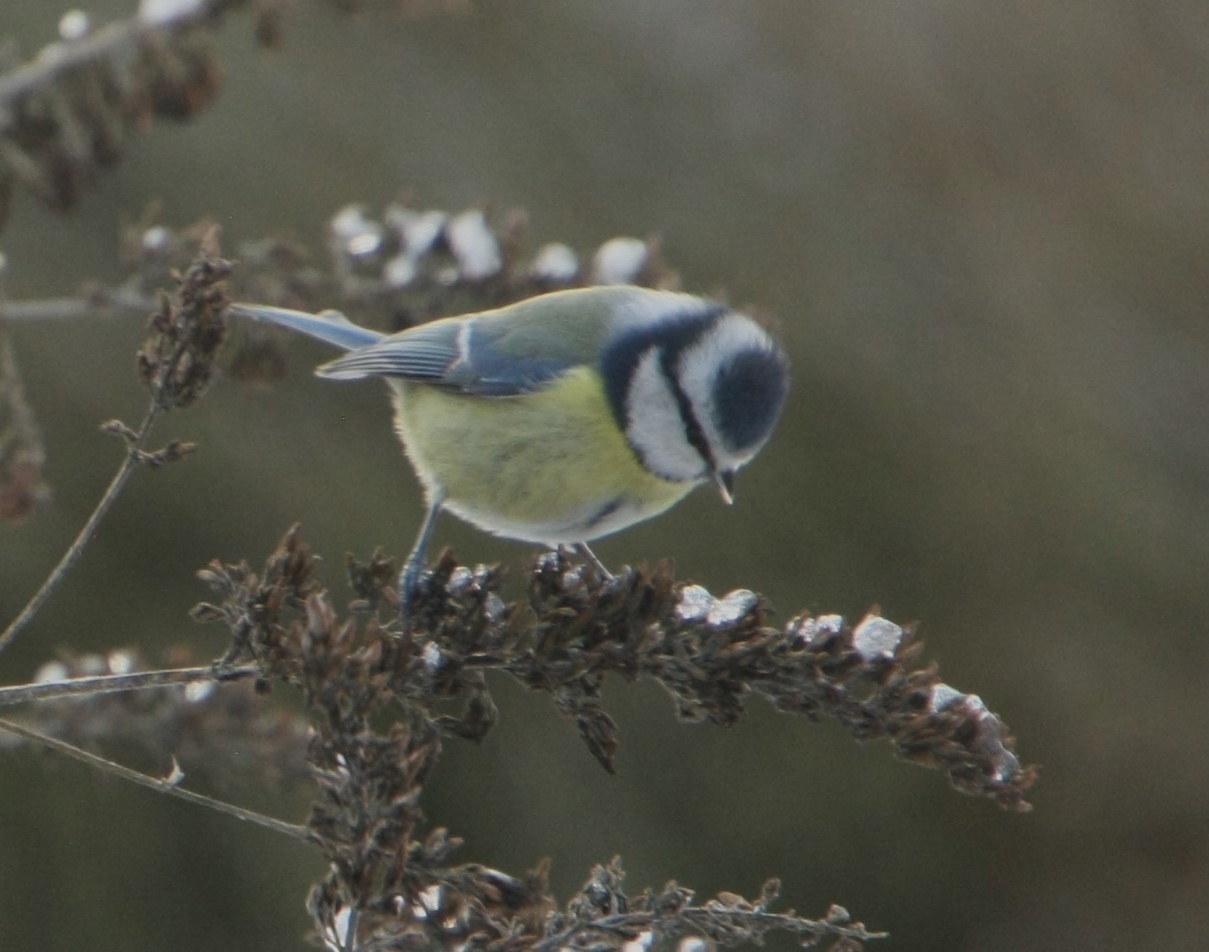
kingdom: Animalia
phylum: Chordata
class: Aves
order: Passeriformes
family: Paridae
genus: Cyanistes
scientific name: Cyanistes caeruleus
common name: Blåmejse
